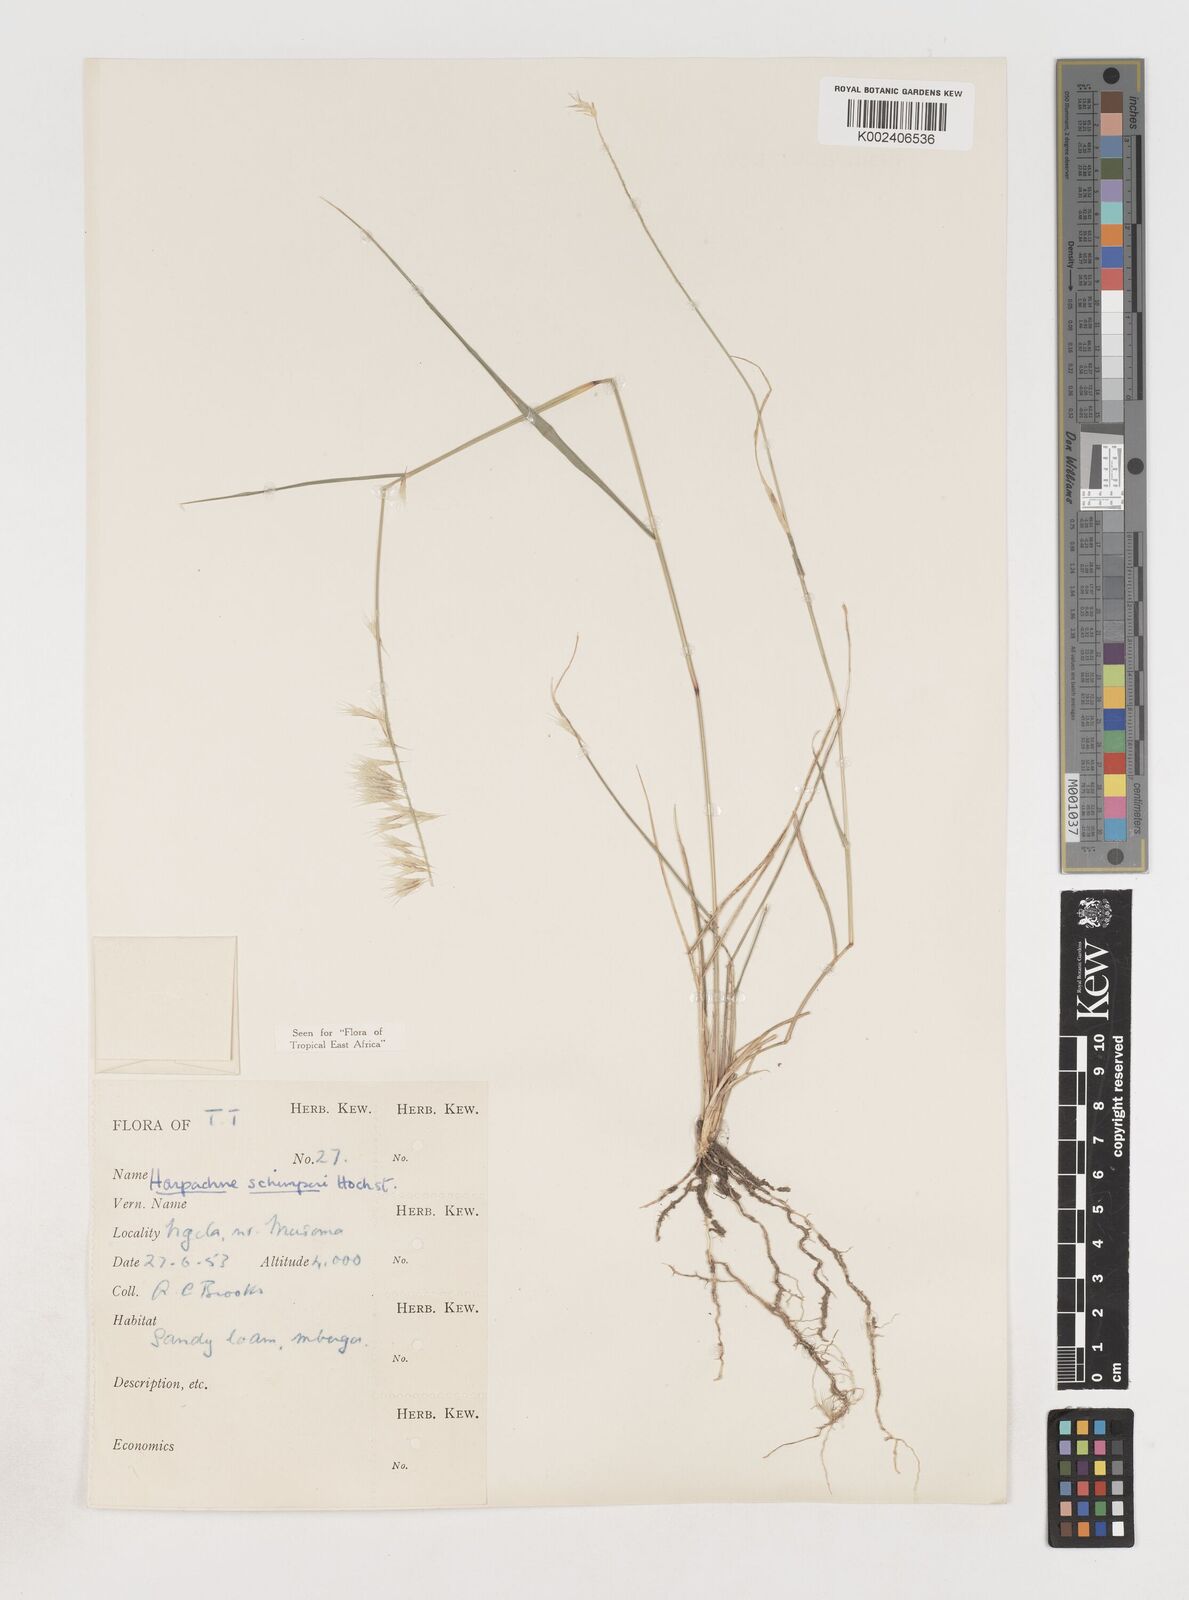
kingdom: Plantae
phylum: Tracheophyta
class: Liliopsida
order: Poales
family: Poaceae
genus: Harpachne
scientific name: Harpachne schimperi
